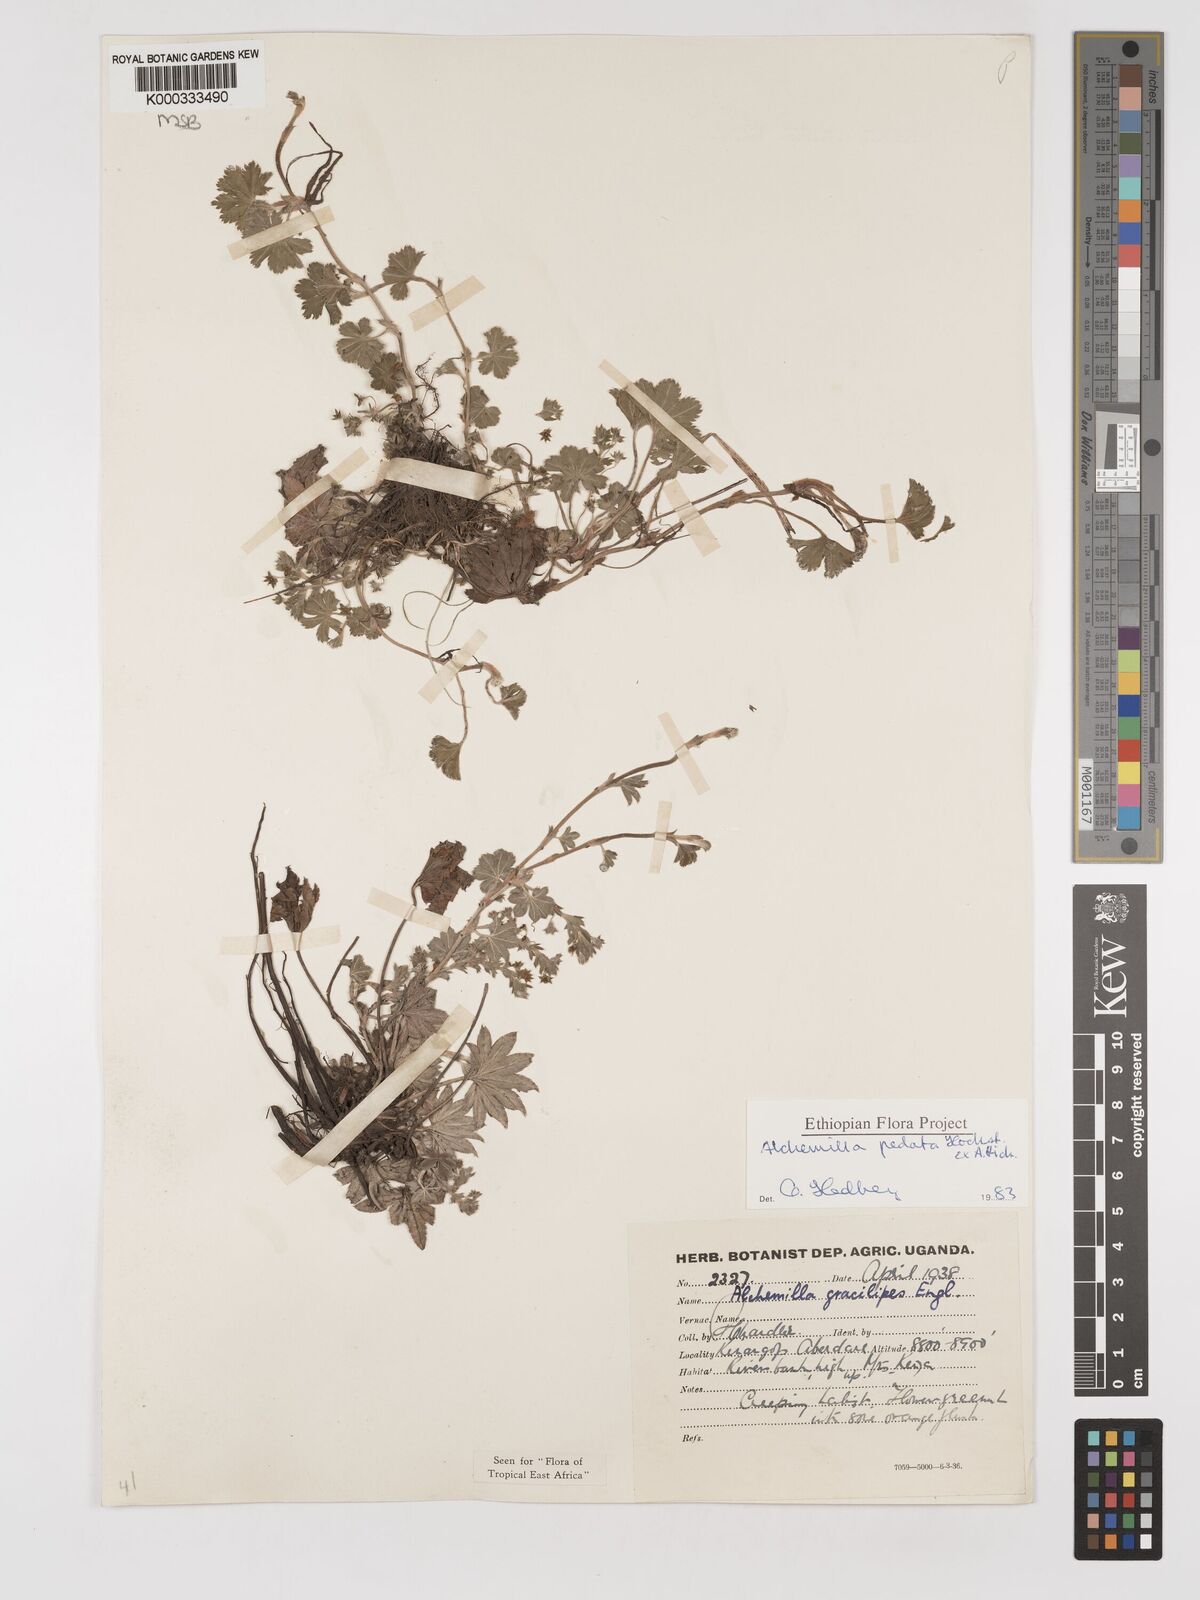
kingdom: Plantae
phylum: Tracheophyta
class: Magnoliopsida
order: Rosales
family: Rosaceae
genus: Alchemilla
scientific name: Alchemilla pedata
